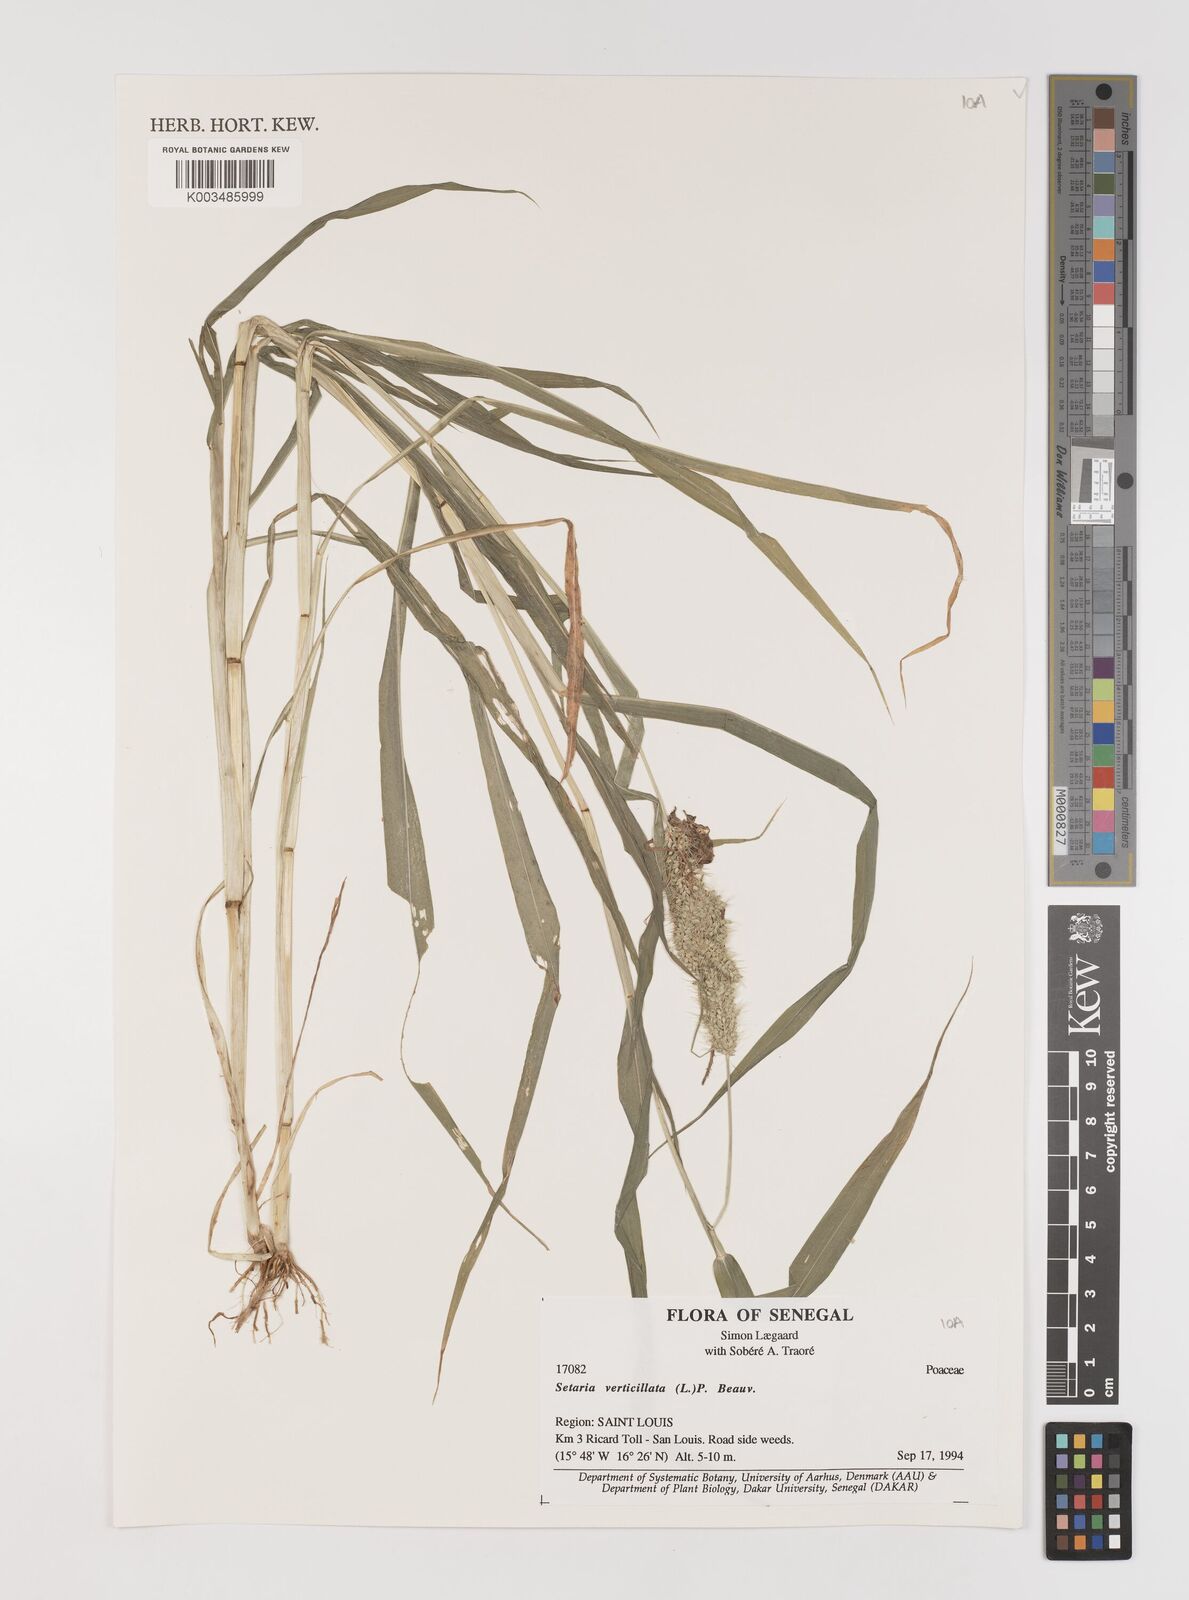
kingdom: Plantae
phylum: Tracheophyta
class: Liliopsida
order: Poales
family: Poaceae
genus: Setaria
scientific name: Setaria verticillata
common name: Hooked bristlegrass
